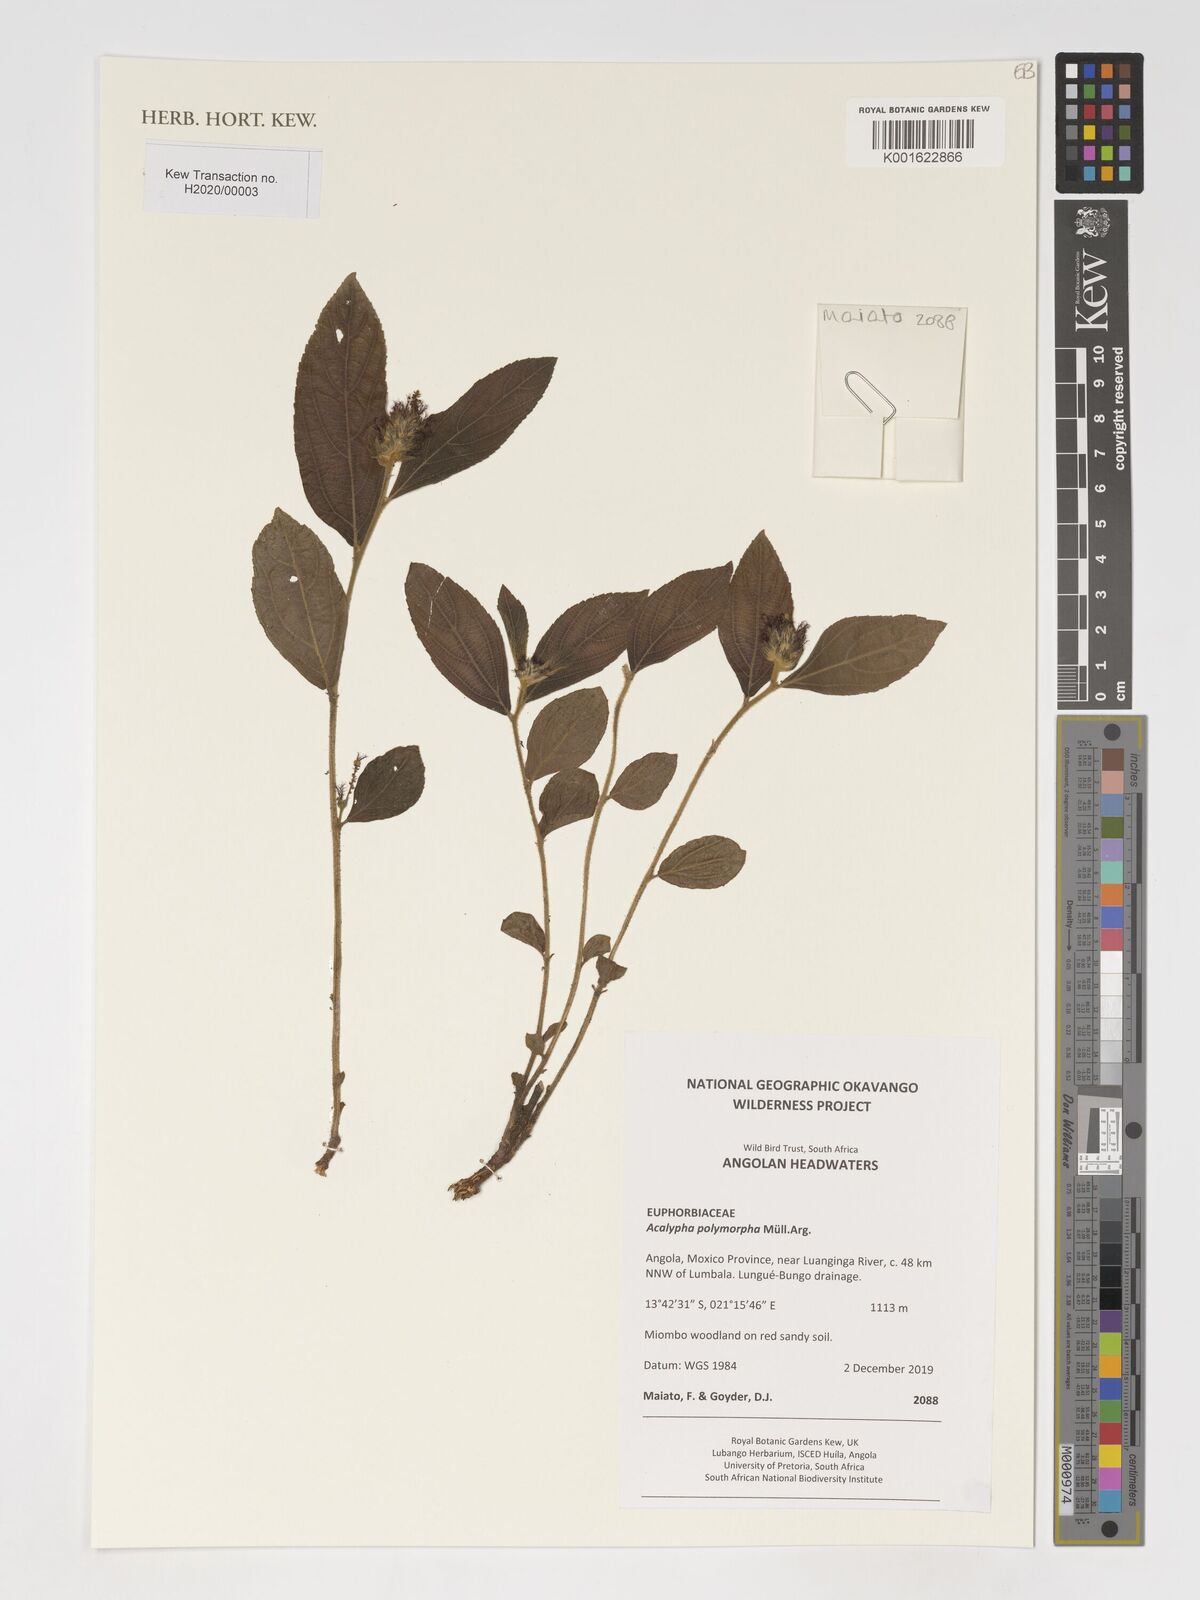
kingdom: Plantae
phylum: Tracheophyta
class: Magnoliopsida
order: Malpighiales
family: Euphorbiaceae
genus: Acalypha
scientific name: Acalypha polymorpha
